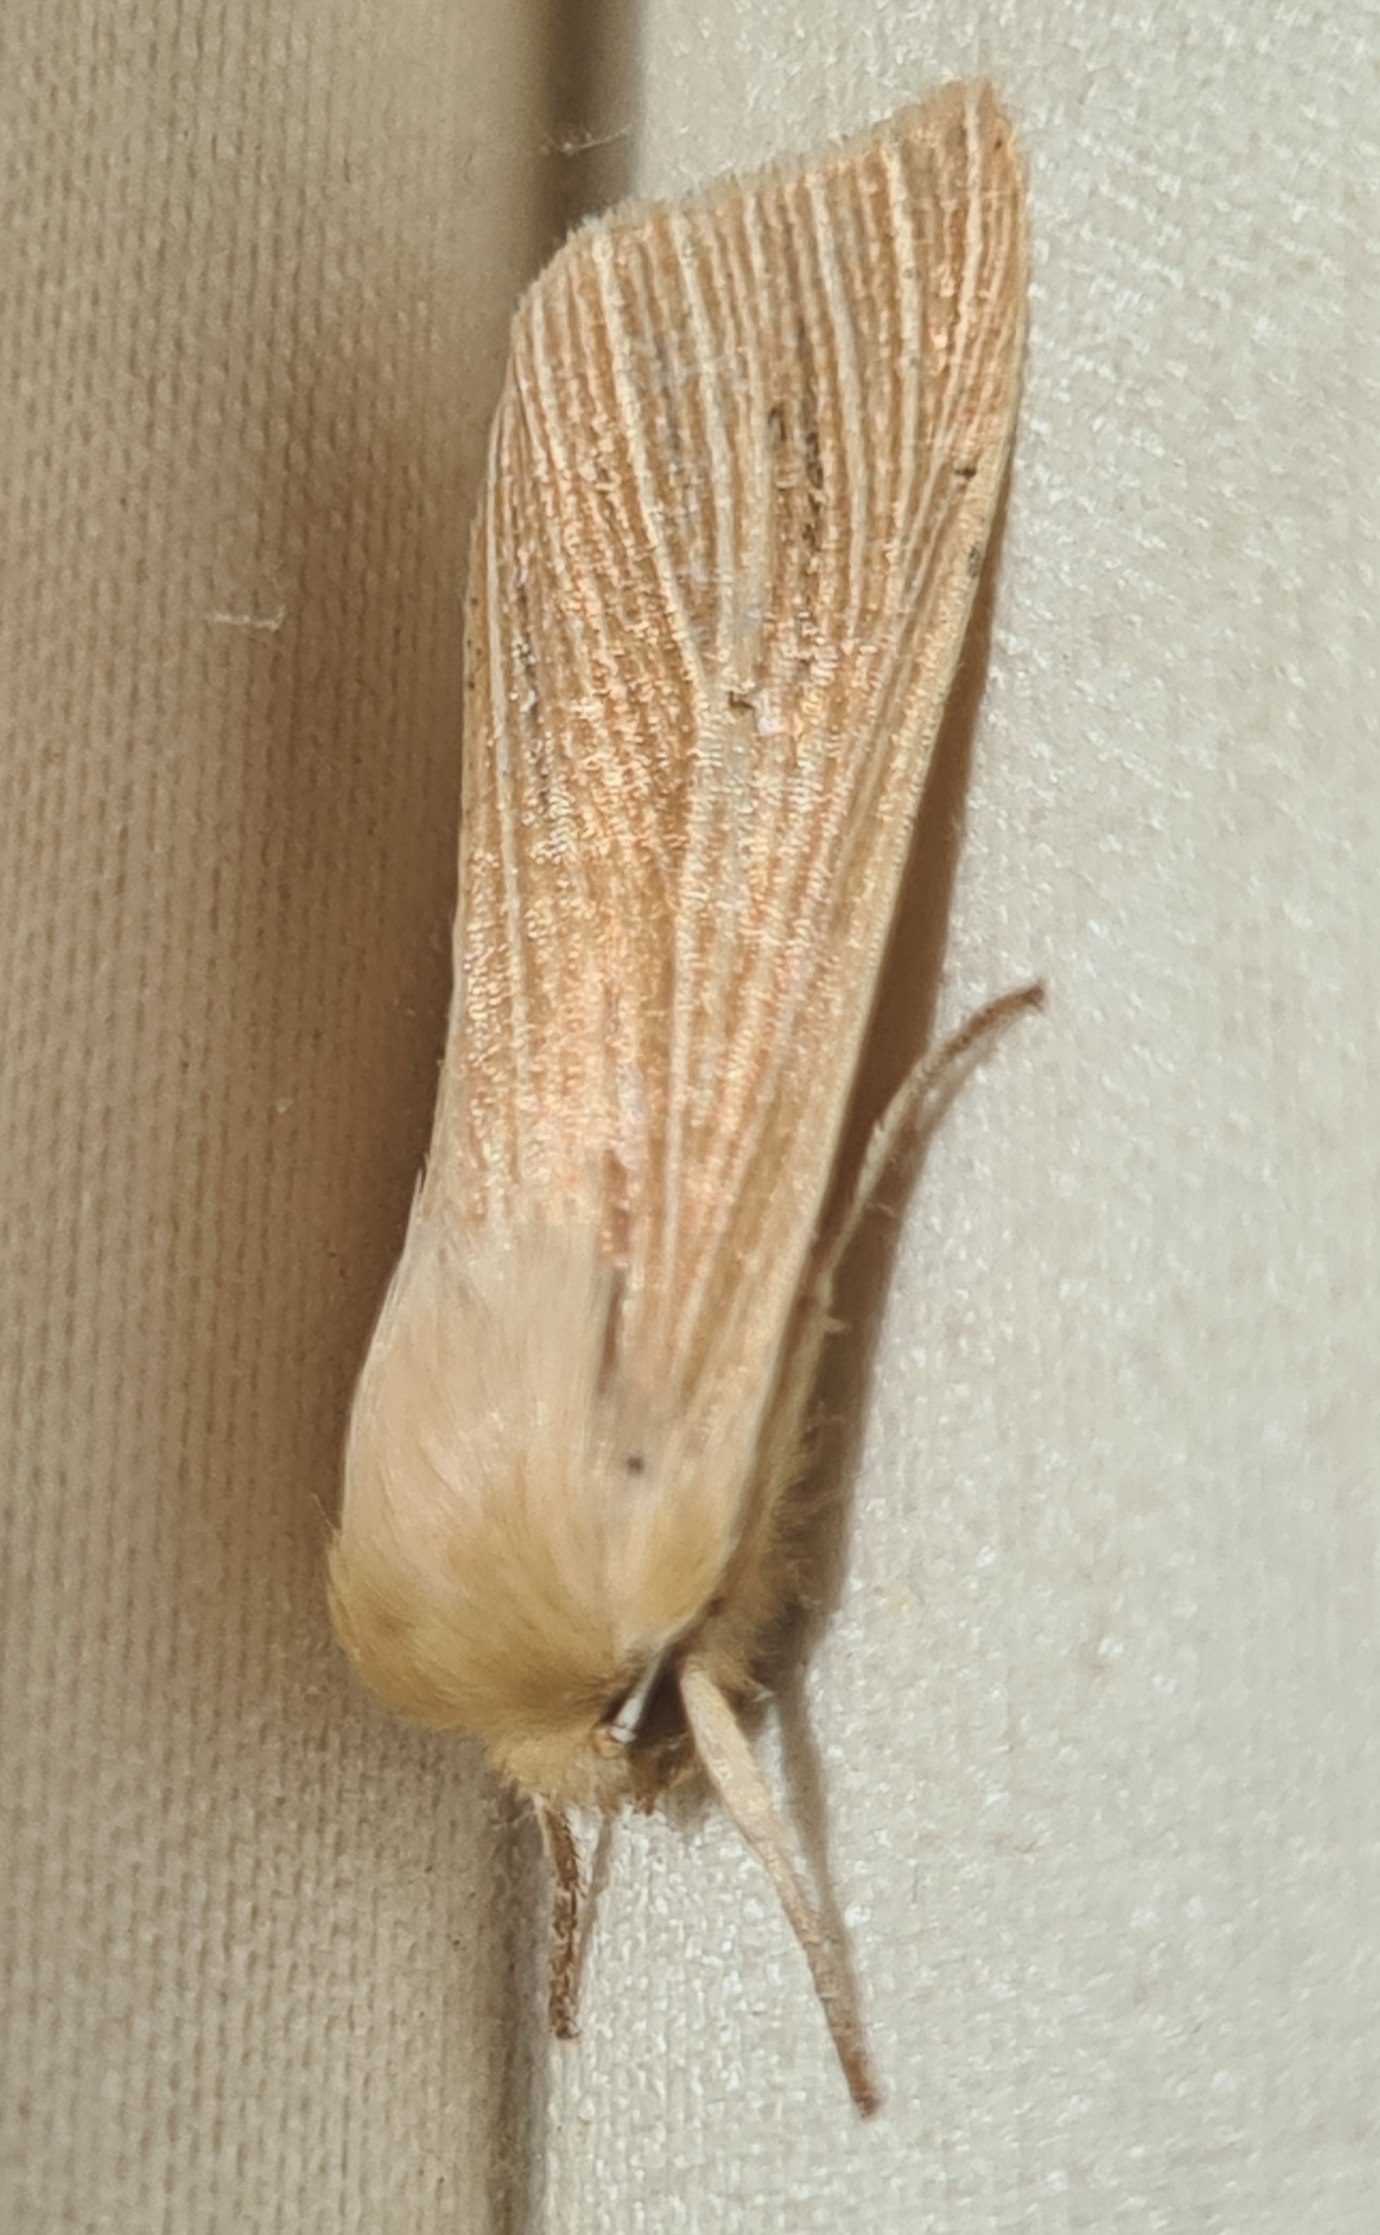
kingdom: Animalia
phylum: Arthropoda
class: Insecta
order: Lepidoptera
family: Noctuidae
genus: Mythimna
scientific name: Mythimna pallens
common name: Halmugle
